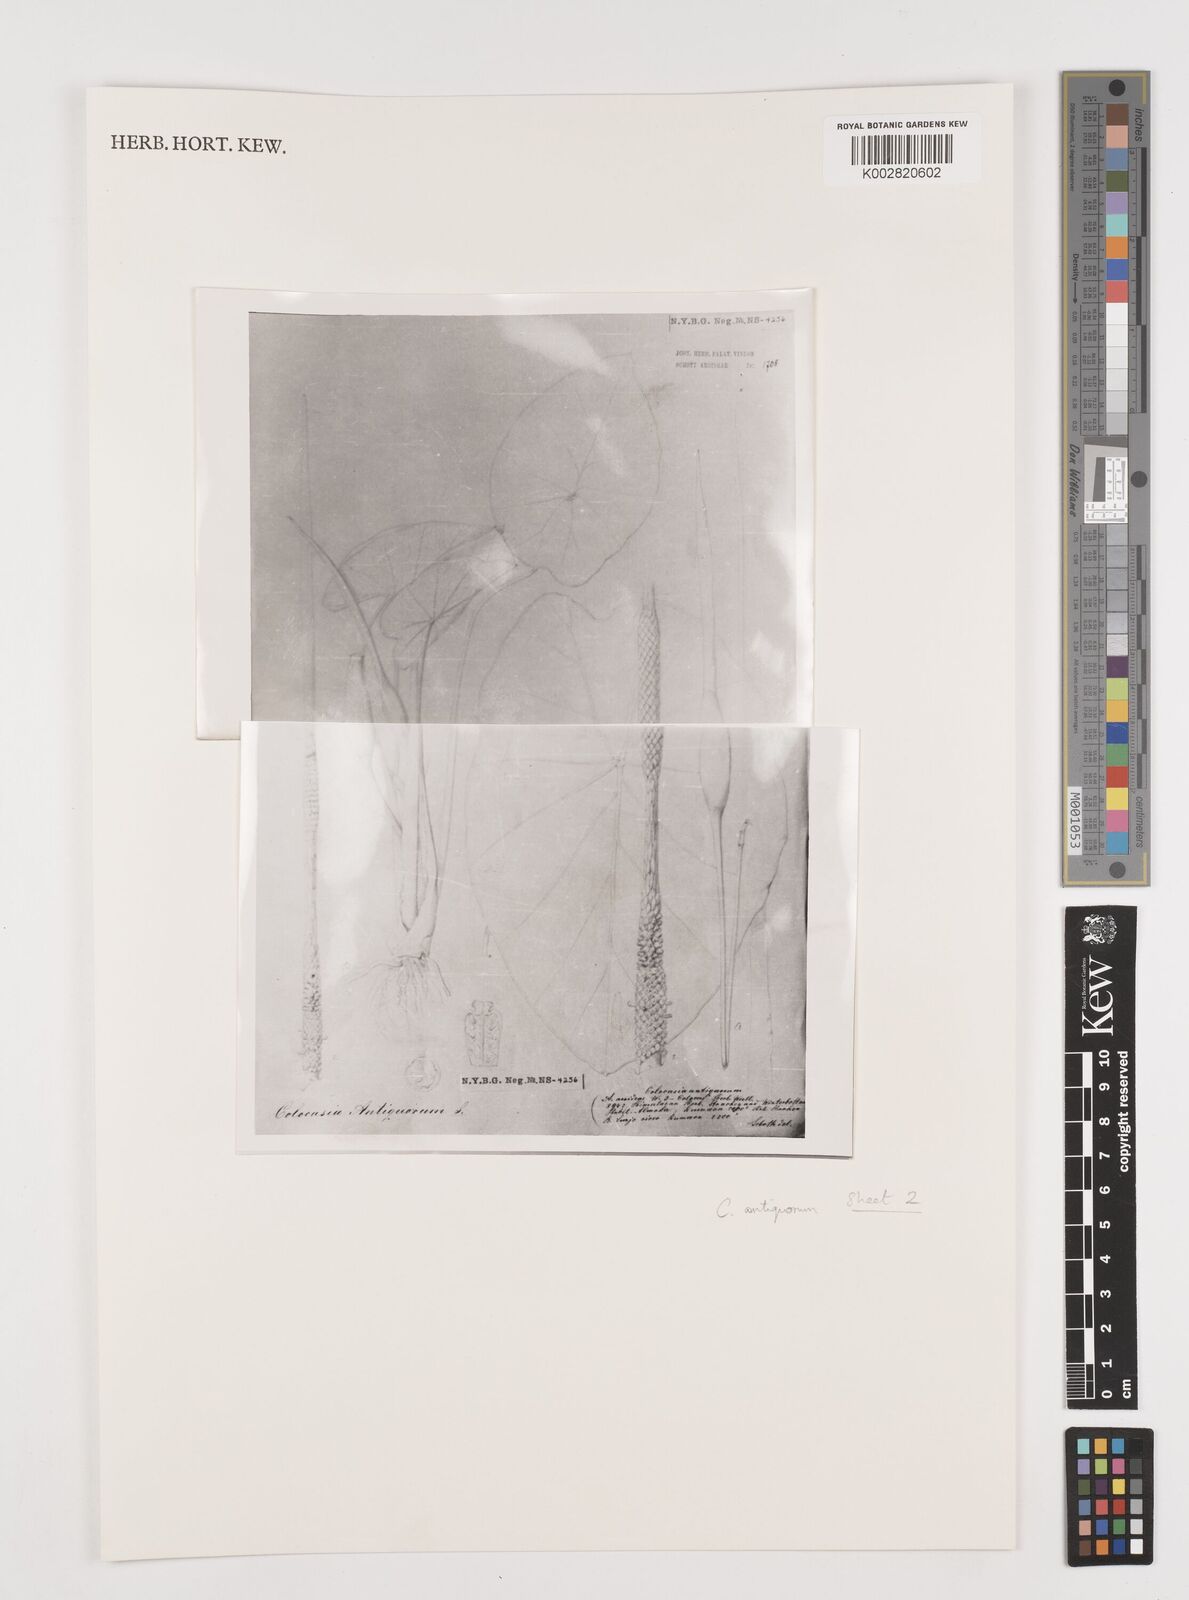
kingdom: Plantae
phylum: Tracheophyta
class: Liliopsida
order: Alismatales
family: Araceae
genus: Colocasia
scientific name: Colocasia esculenta
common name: Taro
